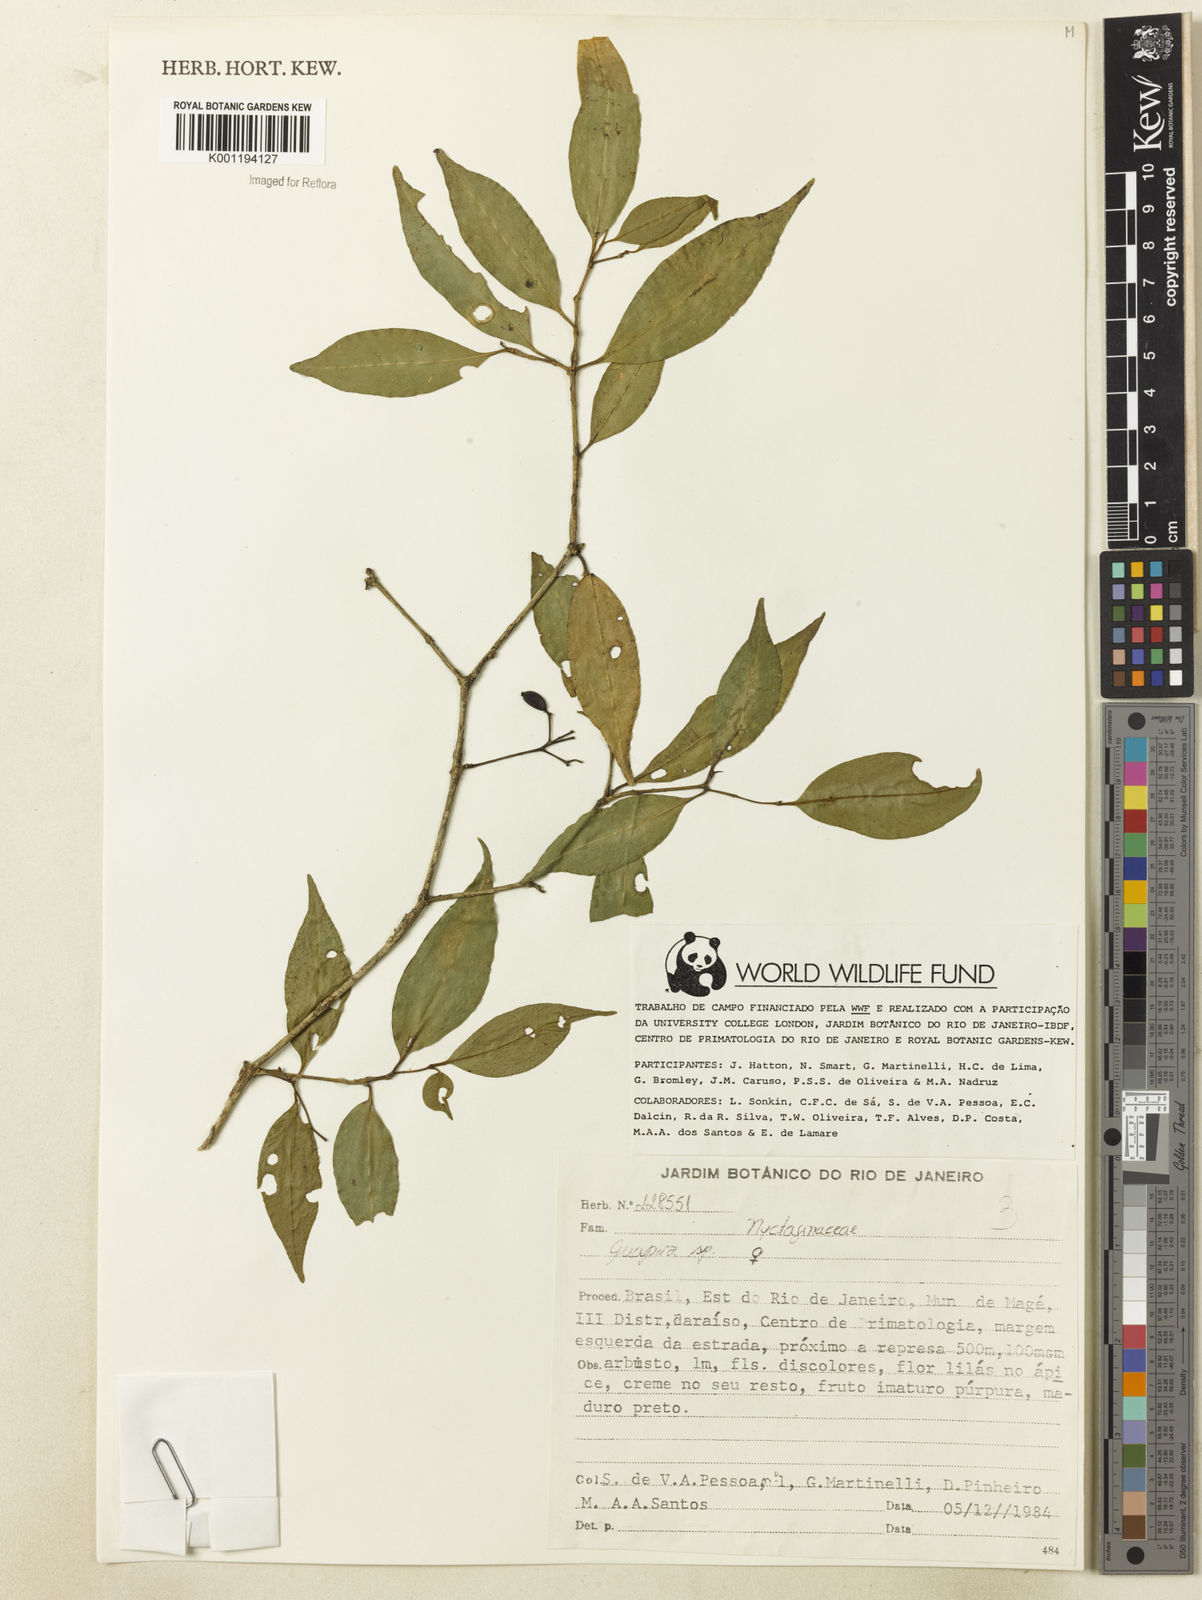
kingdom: Plantae
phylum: Tracheophyta
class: Magnoliopsida
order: Caryophyllales
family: Nyctaginaceae
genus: Guapira
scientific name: Guapira
